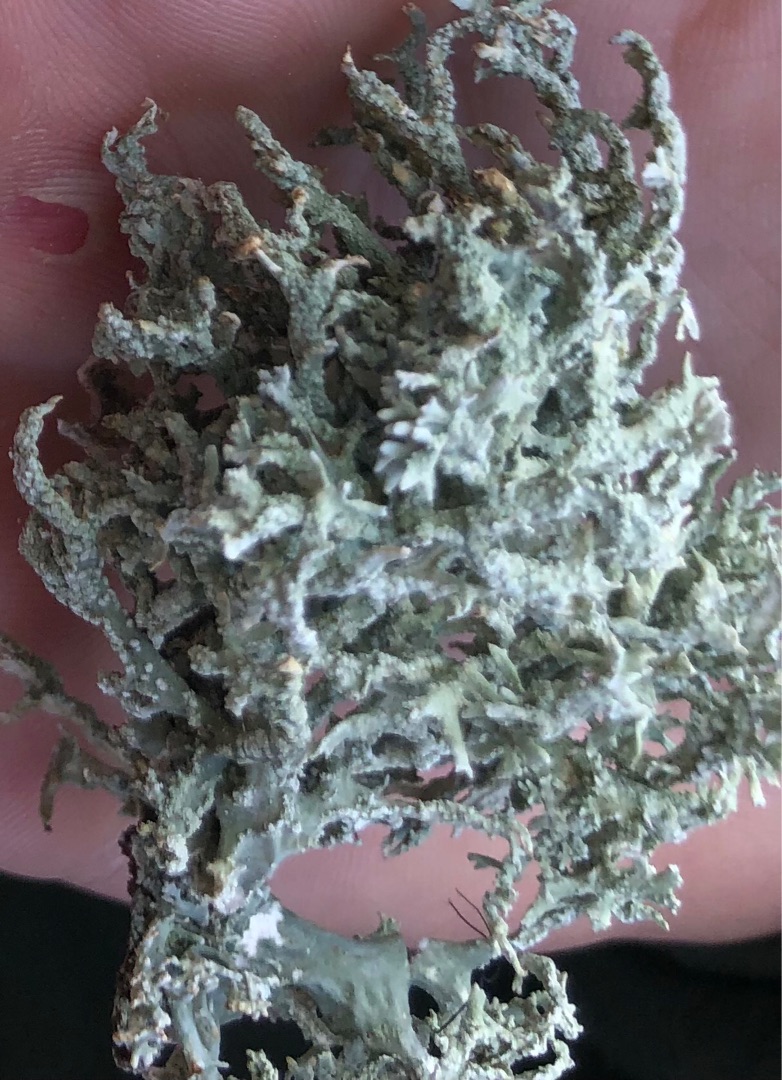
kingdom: Fungi
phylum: Ascomycota
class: Lecanoromycetes
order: Lecanorales
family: Parmeliaceae
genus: Evernia
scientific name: Evernia prunastri
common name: Almindelig slåenlav
